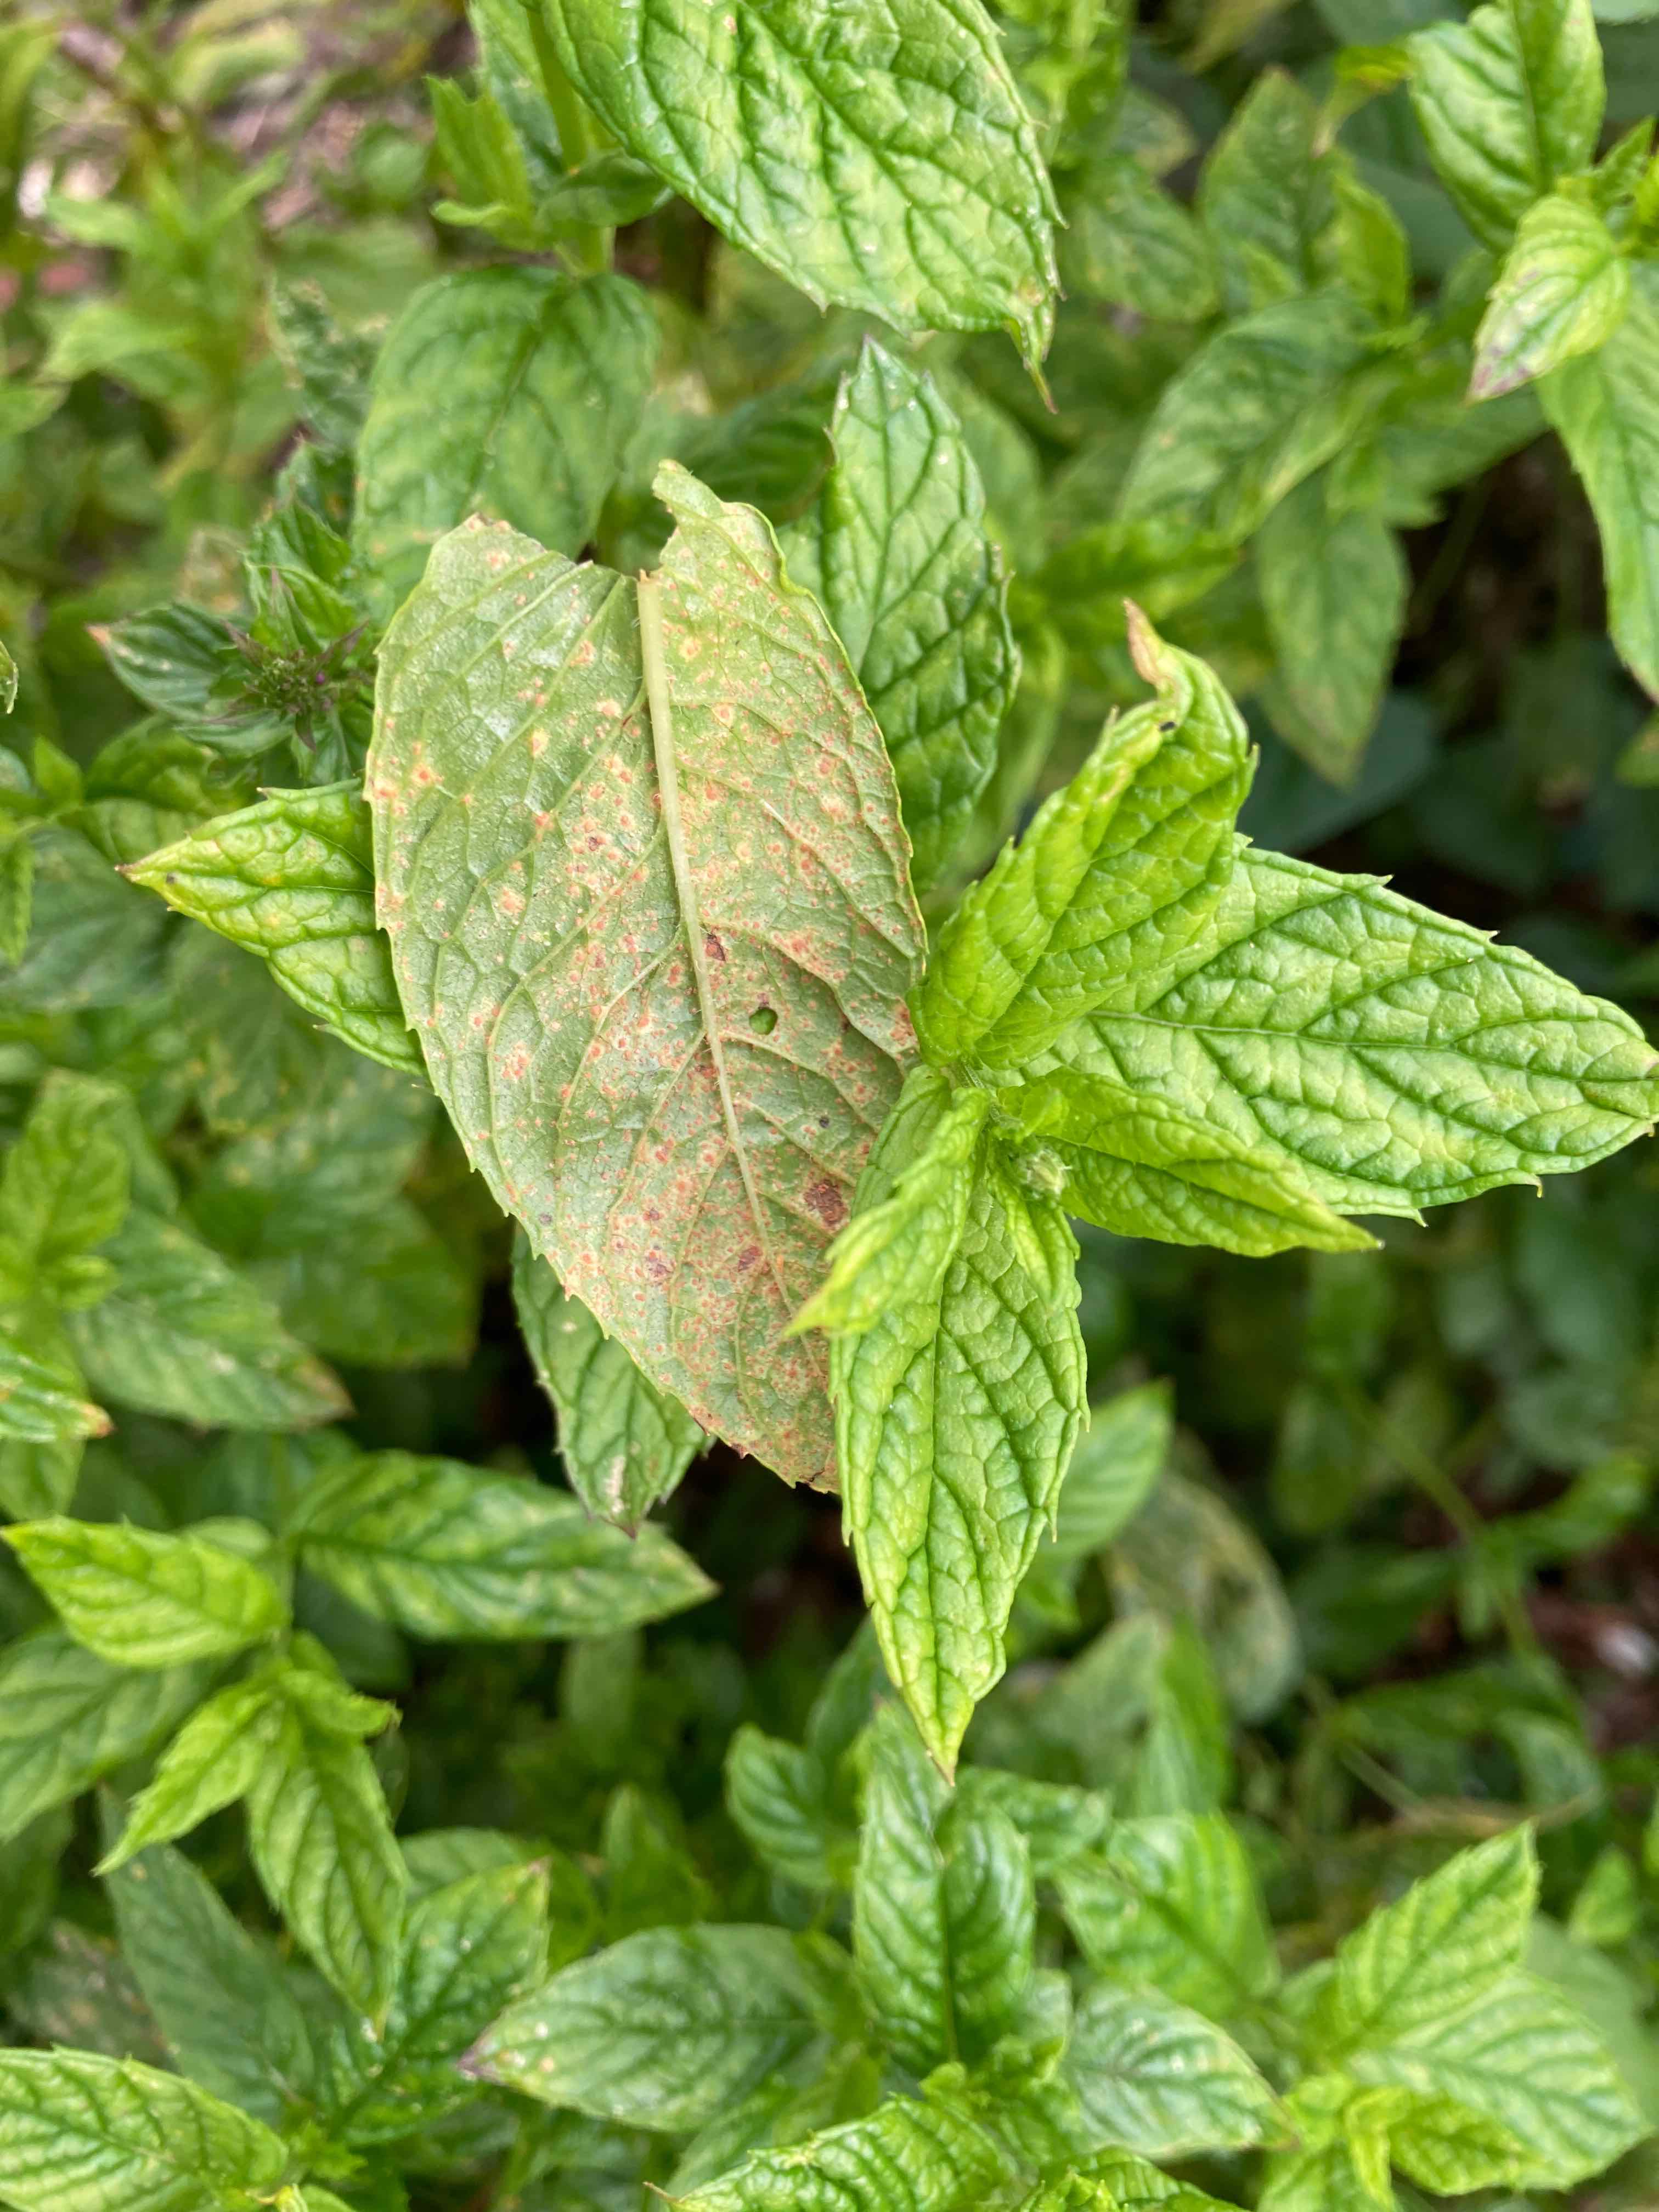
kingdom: Fungi
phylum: Basidiomycota
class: Pucciniomycetes
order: Pucciniales
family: Pucciniaceae
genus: Puccinia
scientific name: Puccinia menthae
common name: Mint rust
